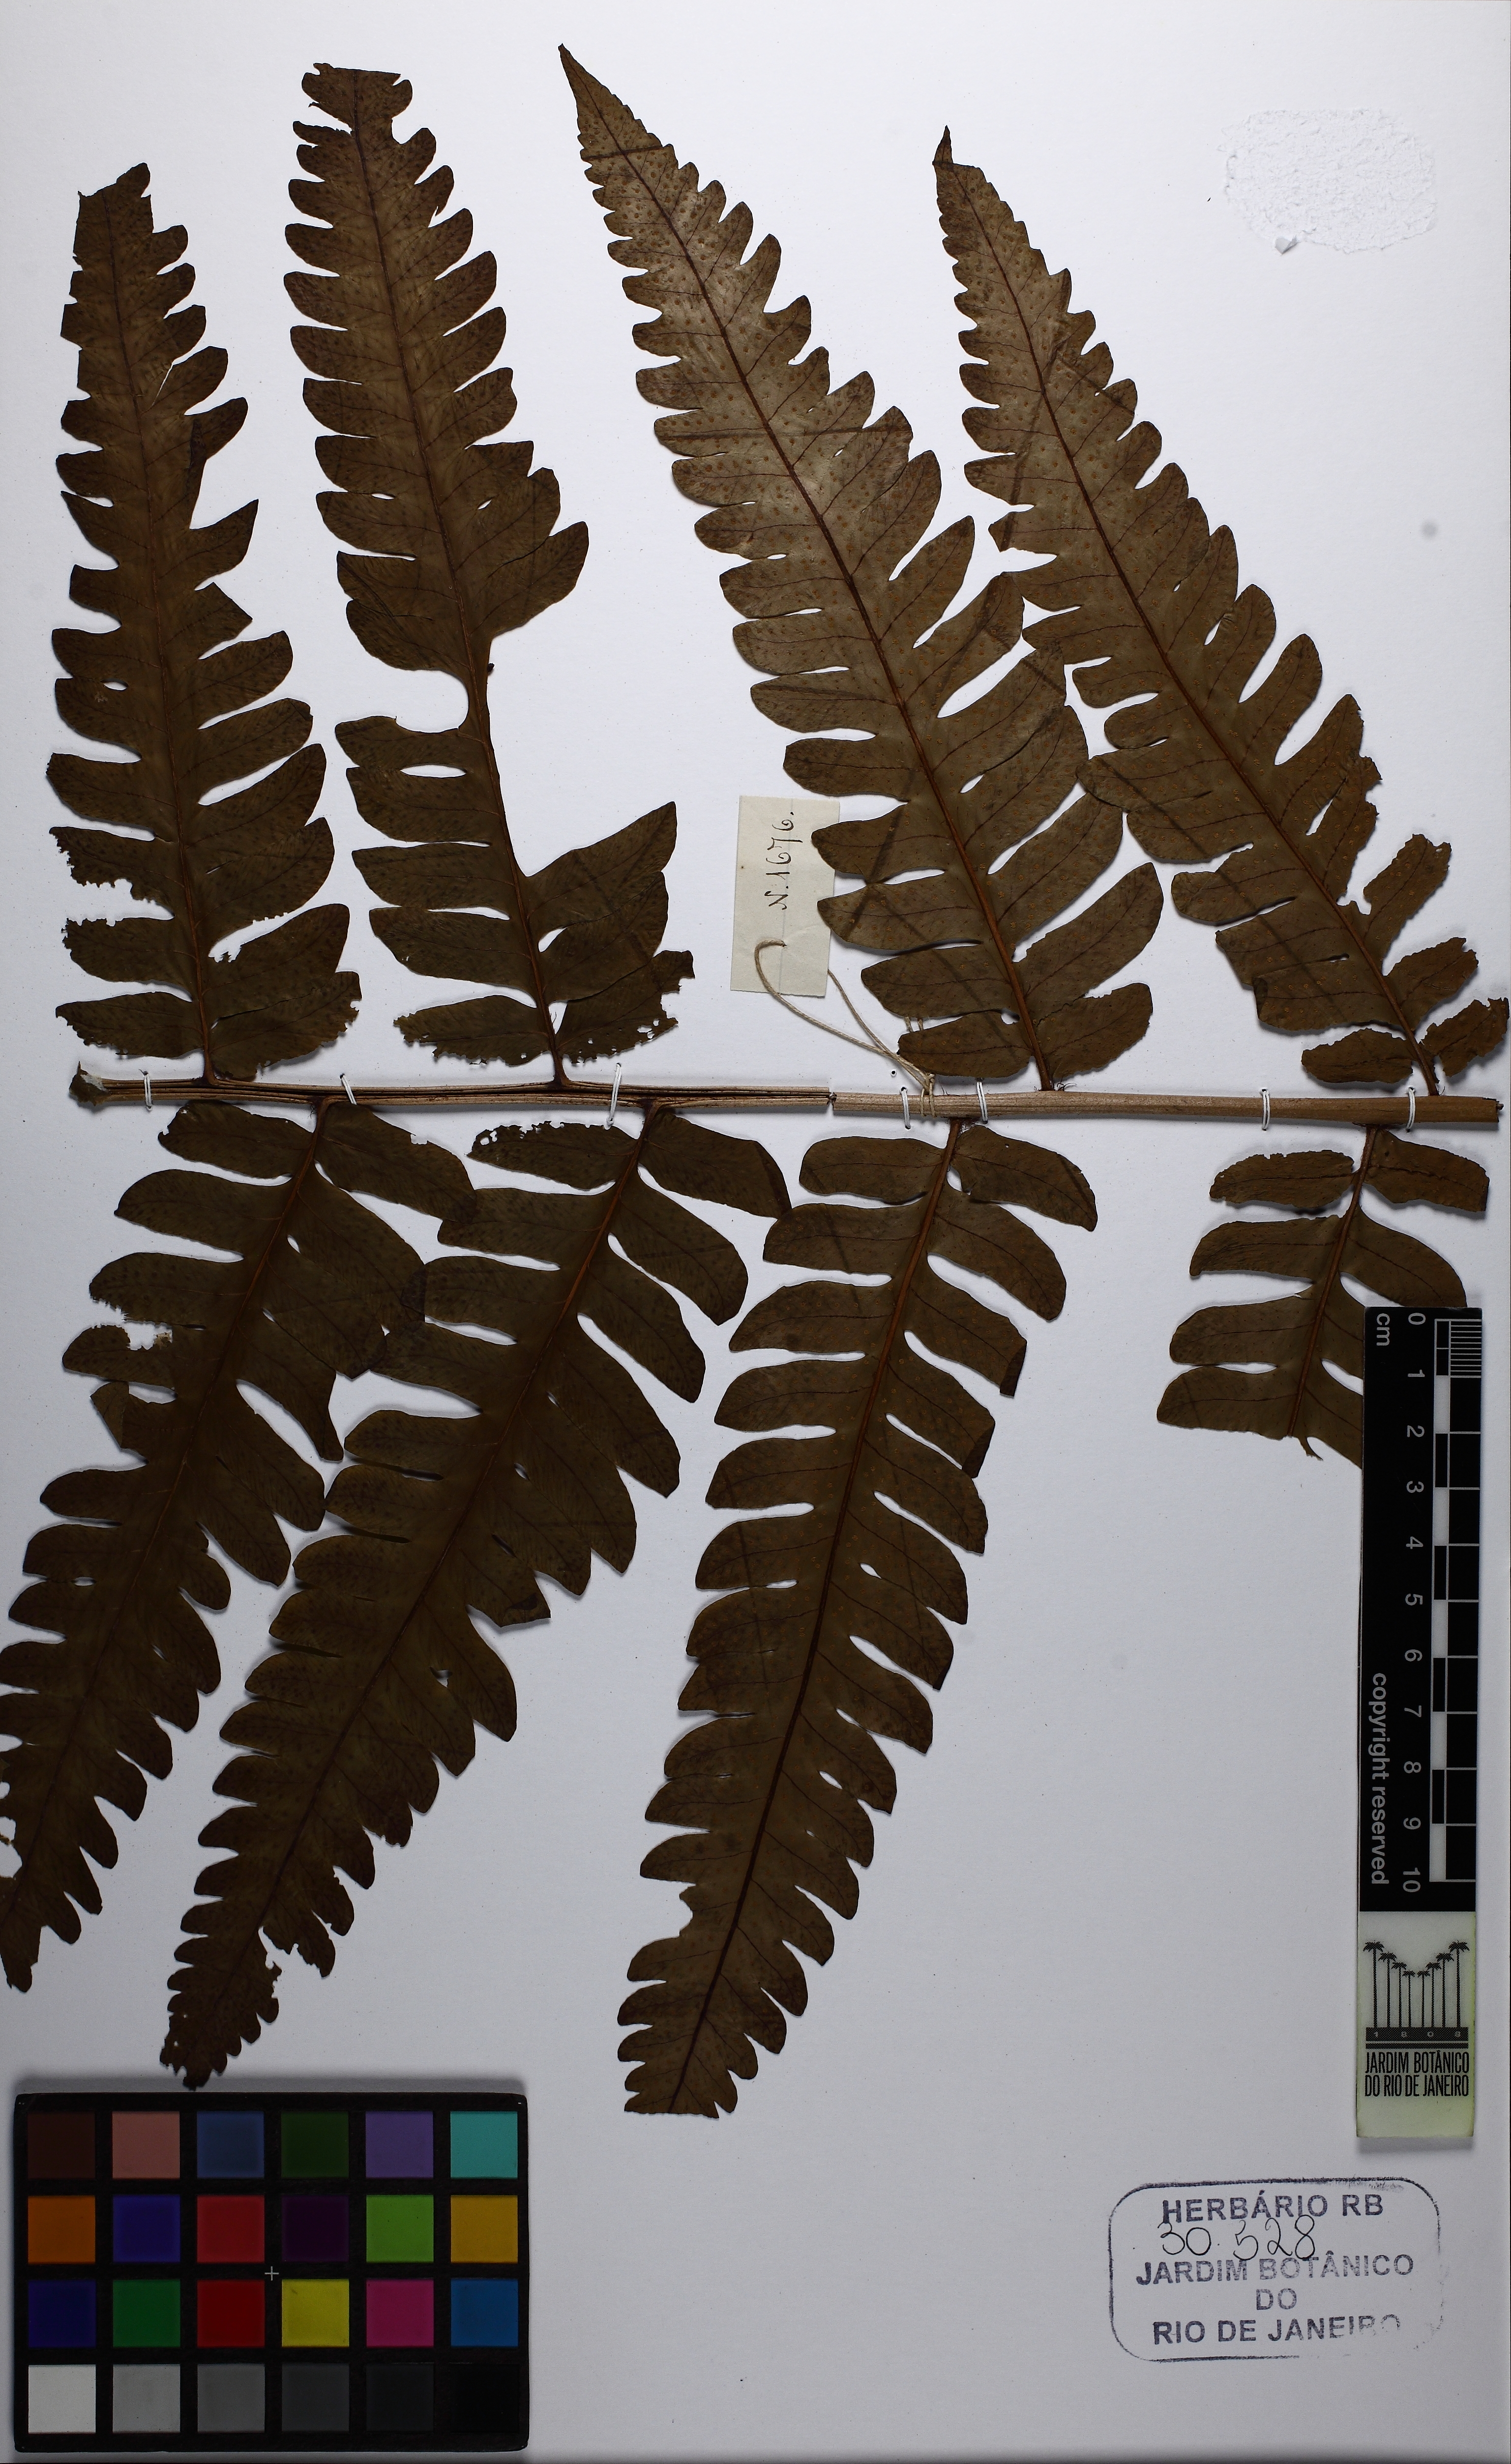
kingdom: Plantae
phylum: Tracheophyta
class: Polypodiopsida
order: Polypodiales
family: Dryopteridaceae
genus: Megalastrum
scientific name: Megalastrum grande
